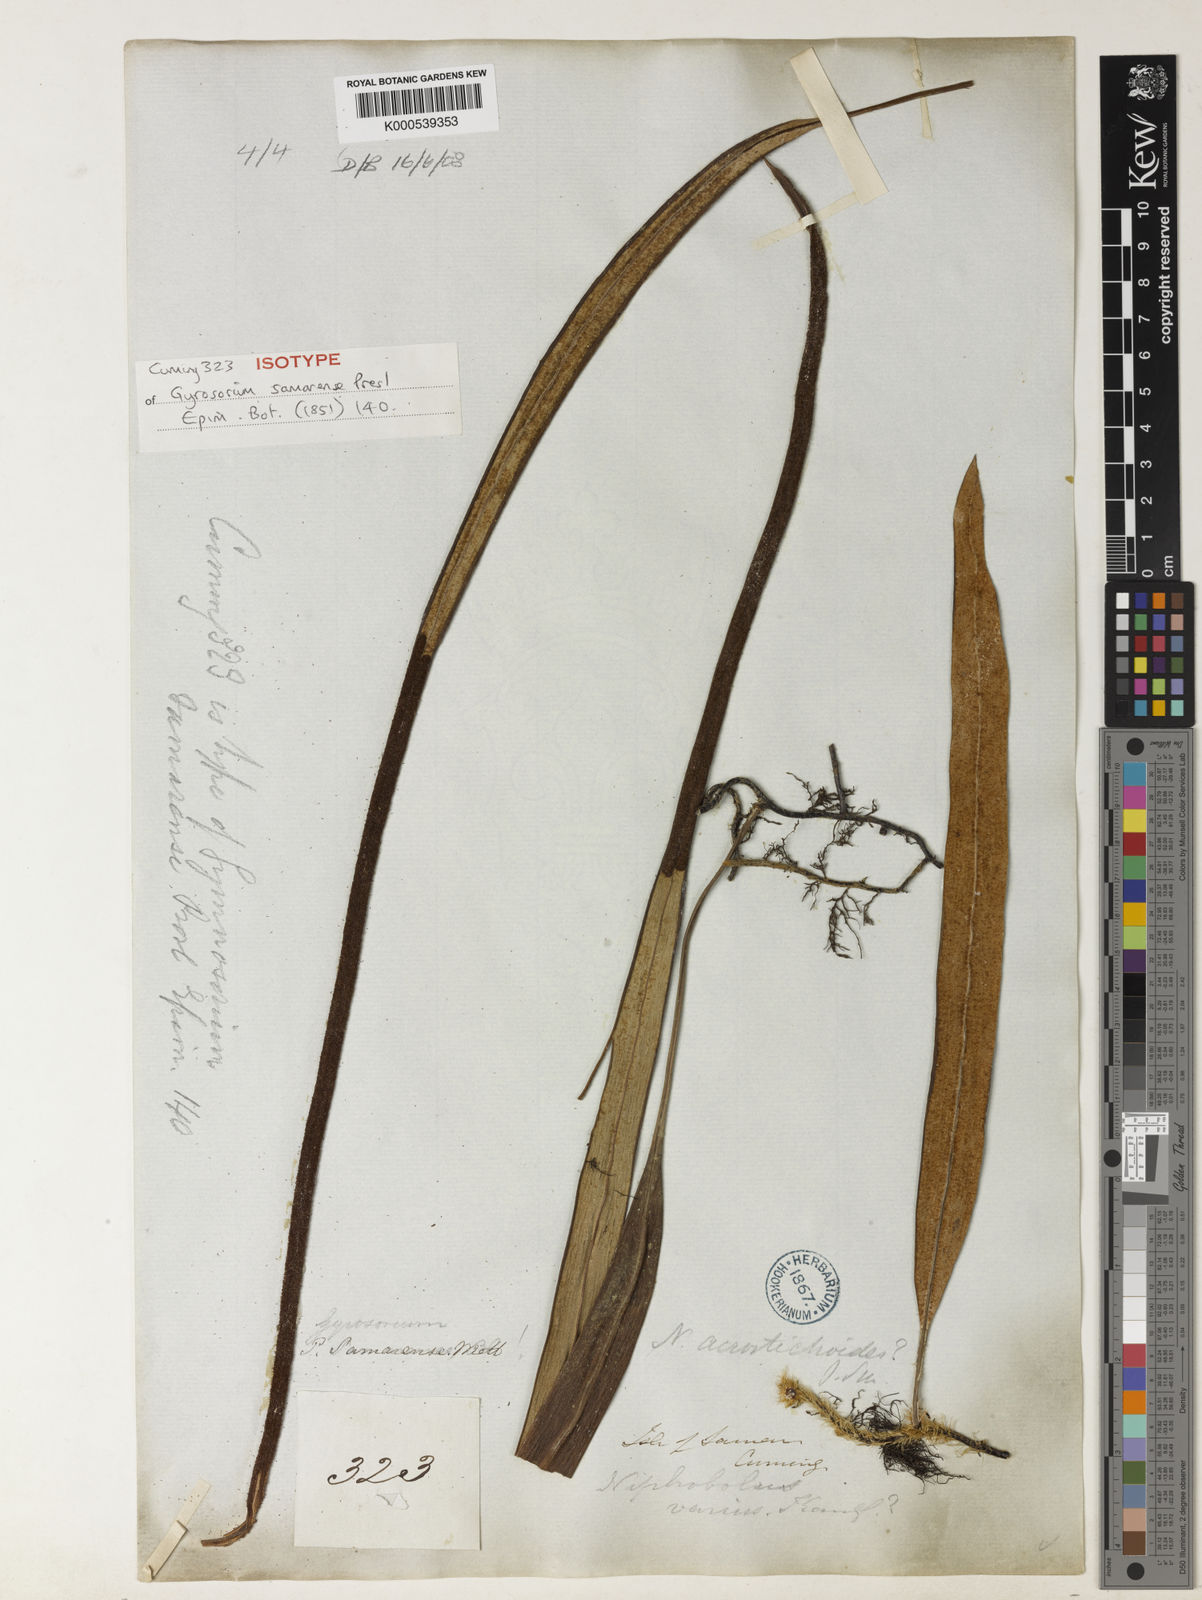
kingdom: Plantae
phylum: Tracheophyta
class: Polypodiopsida
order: Polypodiales
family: Polypodiaceae
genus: Pyrrosia
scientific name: Pyrrosia samarensis
